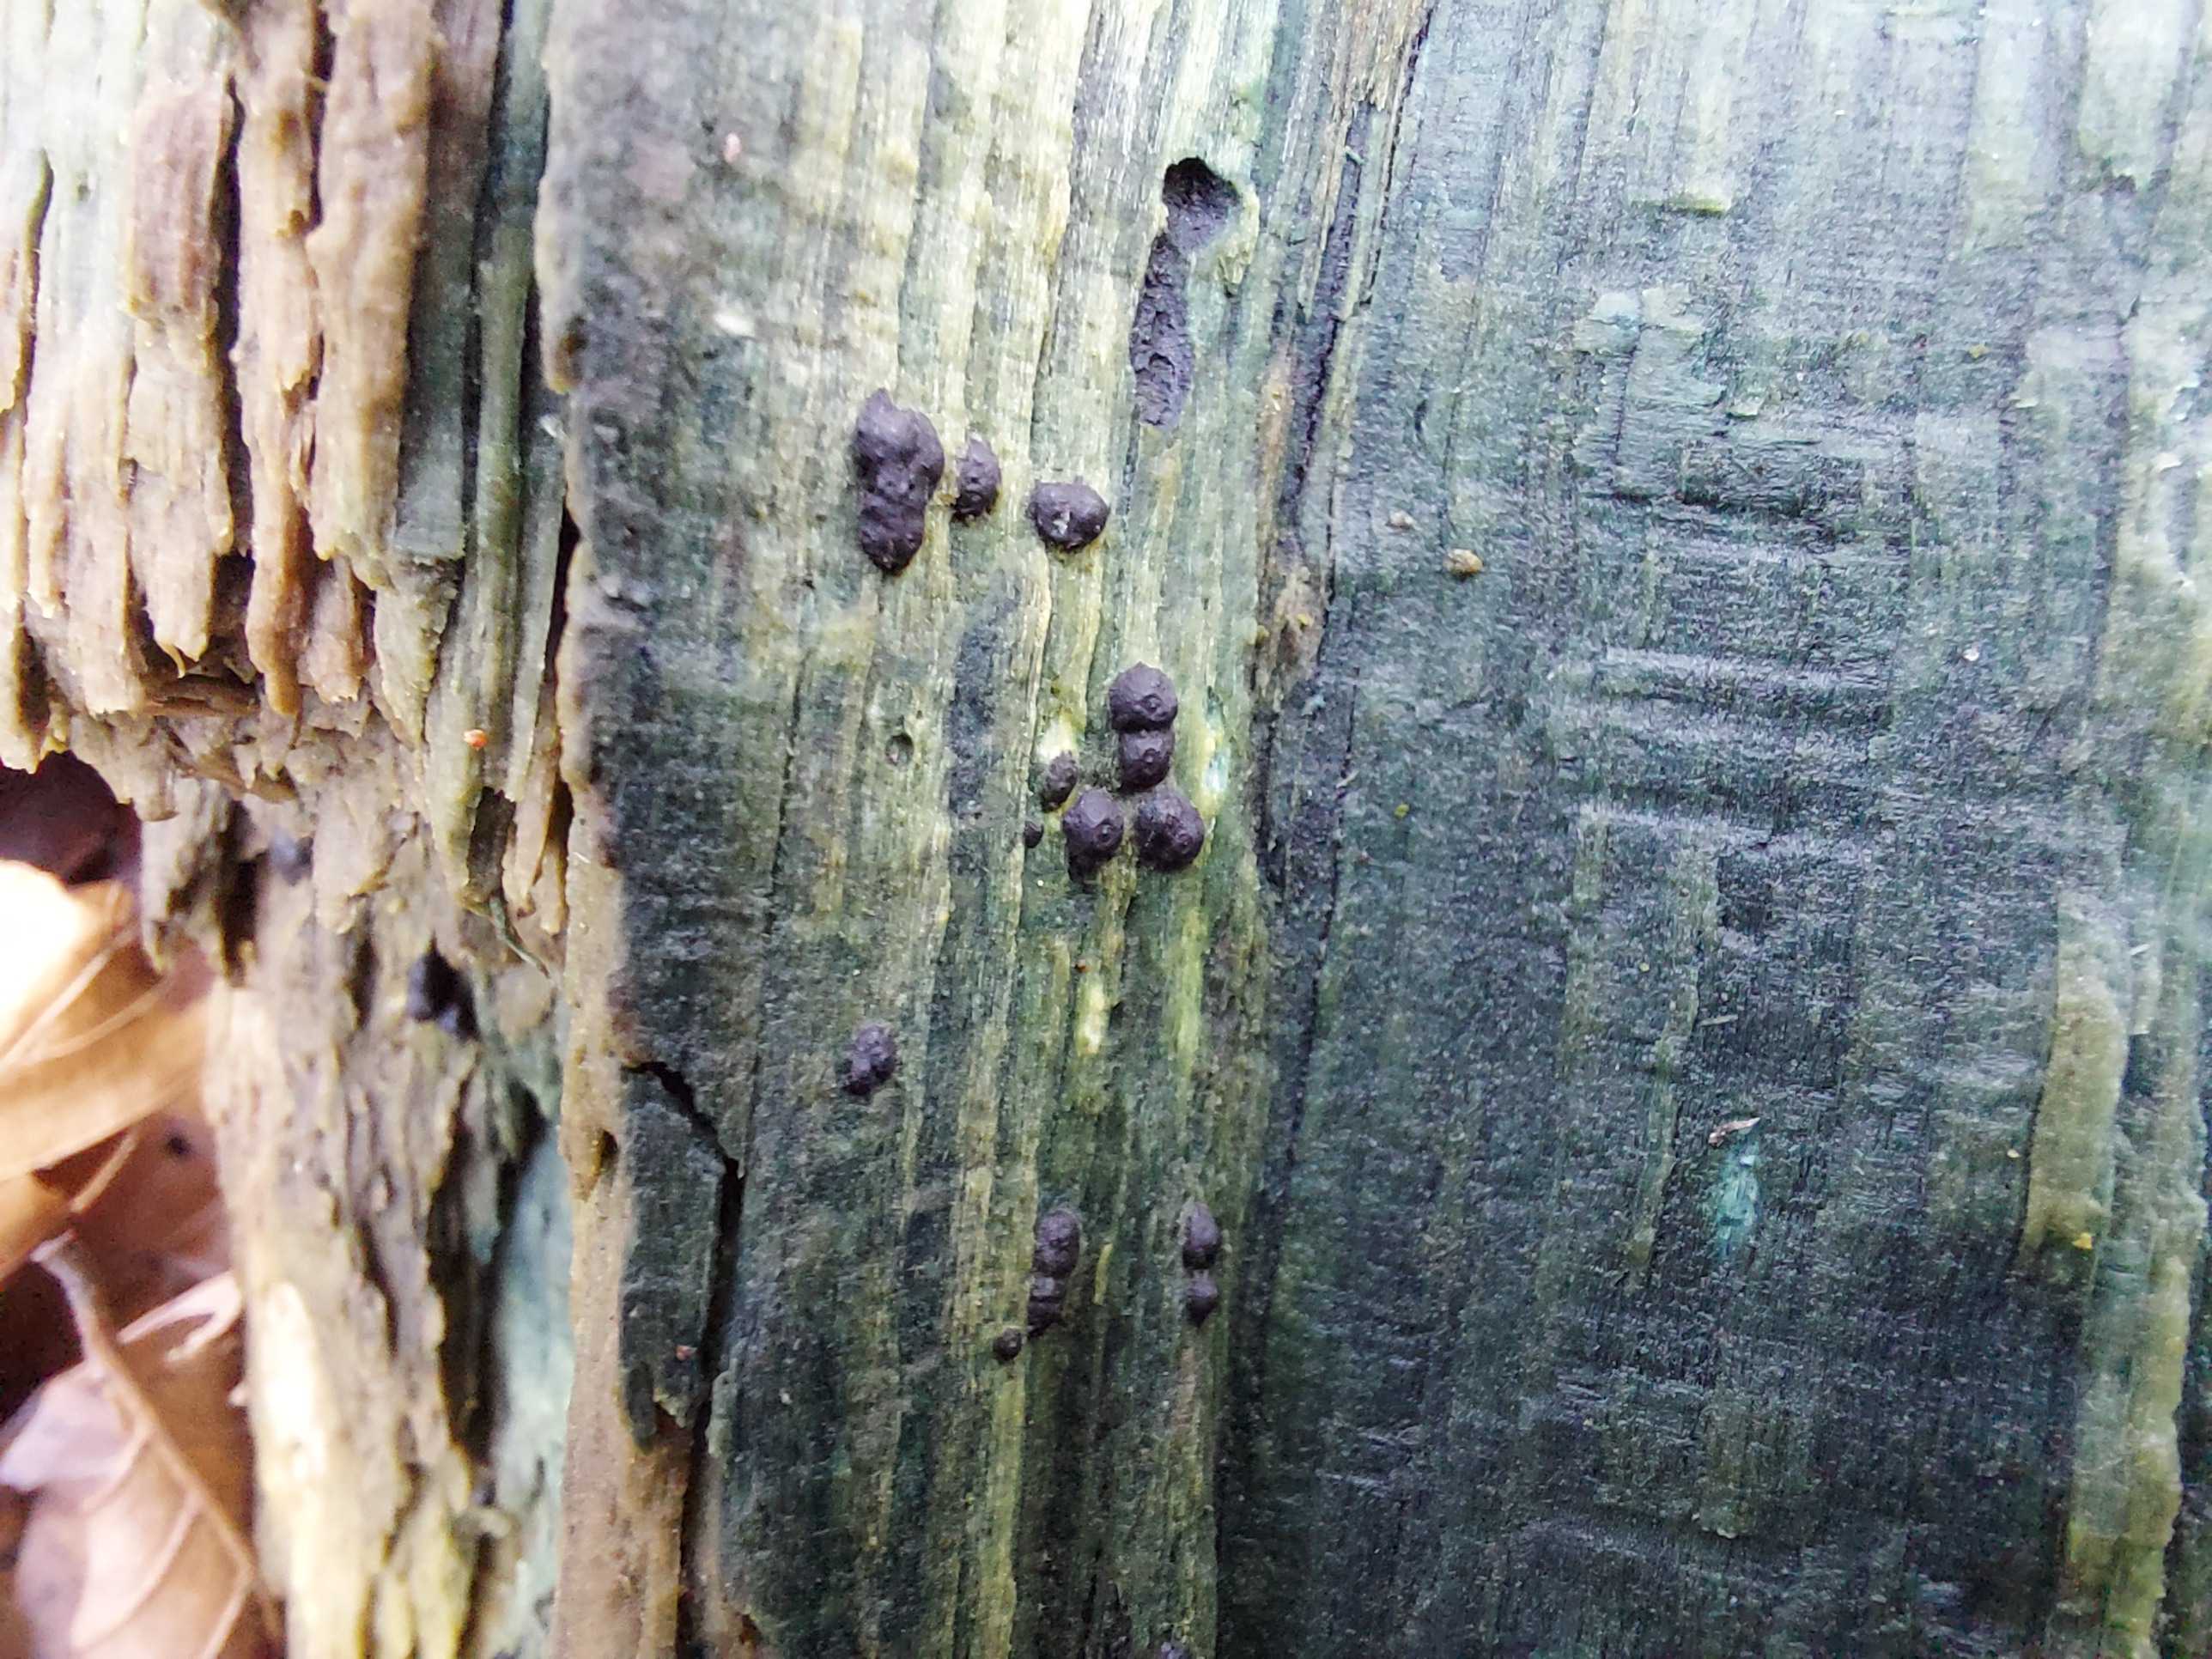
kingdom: Fungi
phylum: Ascomycota
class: Sordariomycetes
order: Xylariales
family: Xylariaceae
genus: Nemania
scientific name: Nemania confluens
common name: indsænket kuldyne
